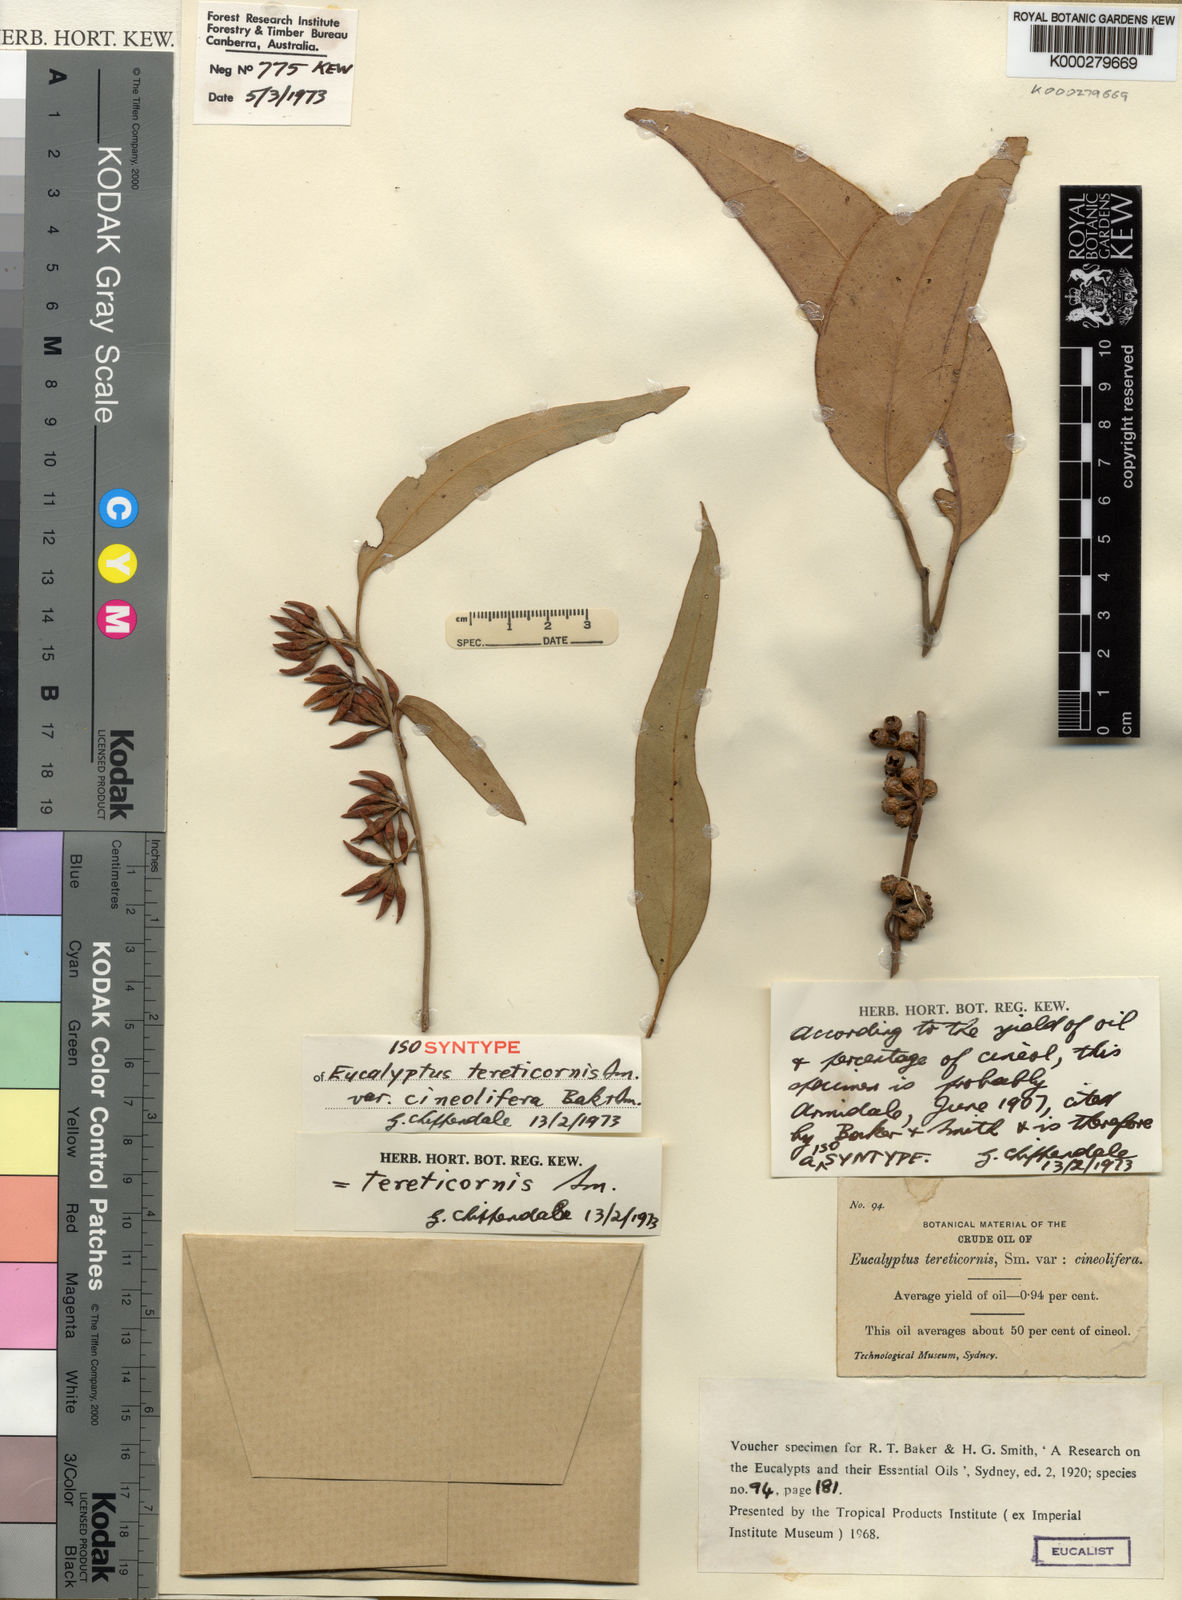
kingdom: Plantae
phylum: Tracheophyta
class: Magnoliopsida
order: Myrtales
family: Myrtaceae
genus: Eucalyptus
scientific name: Eucalyptus tereticornis
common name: Forest redgum
